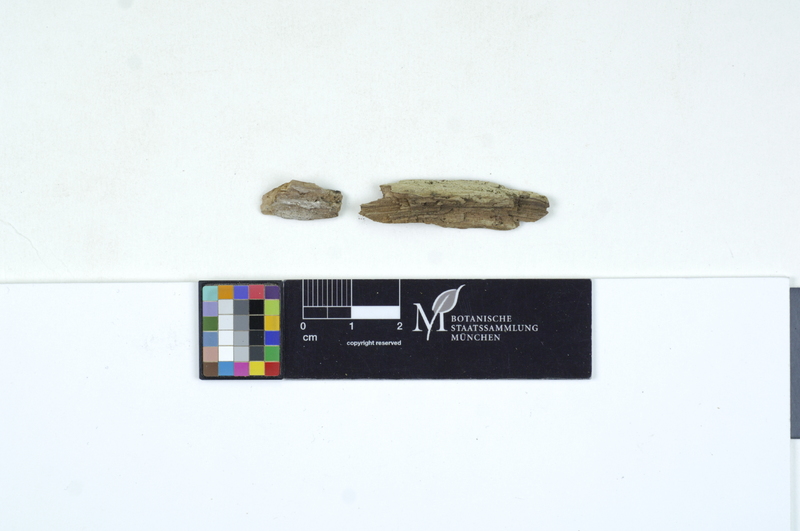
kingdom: Fungi
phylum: Basidiomycota
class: Agaricomycetes
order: Cantharellales
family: Ceratobasidiaceae
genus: Rhizoctonia
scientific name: Rhizoctonia fusispora
